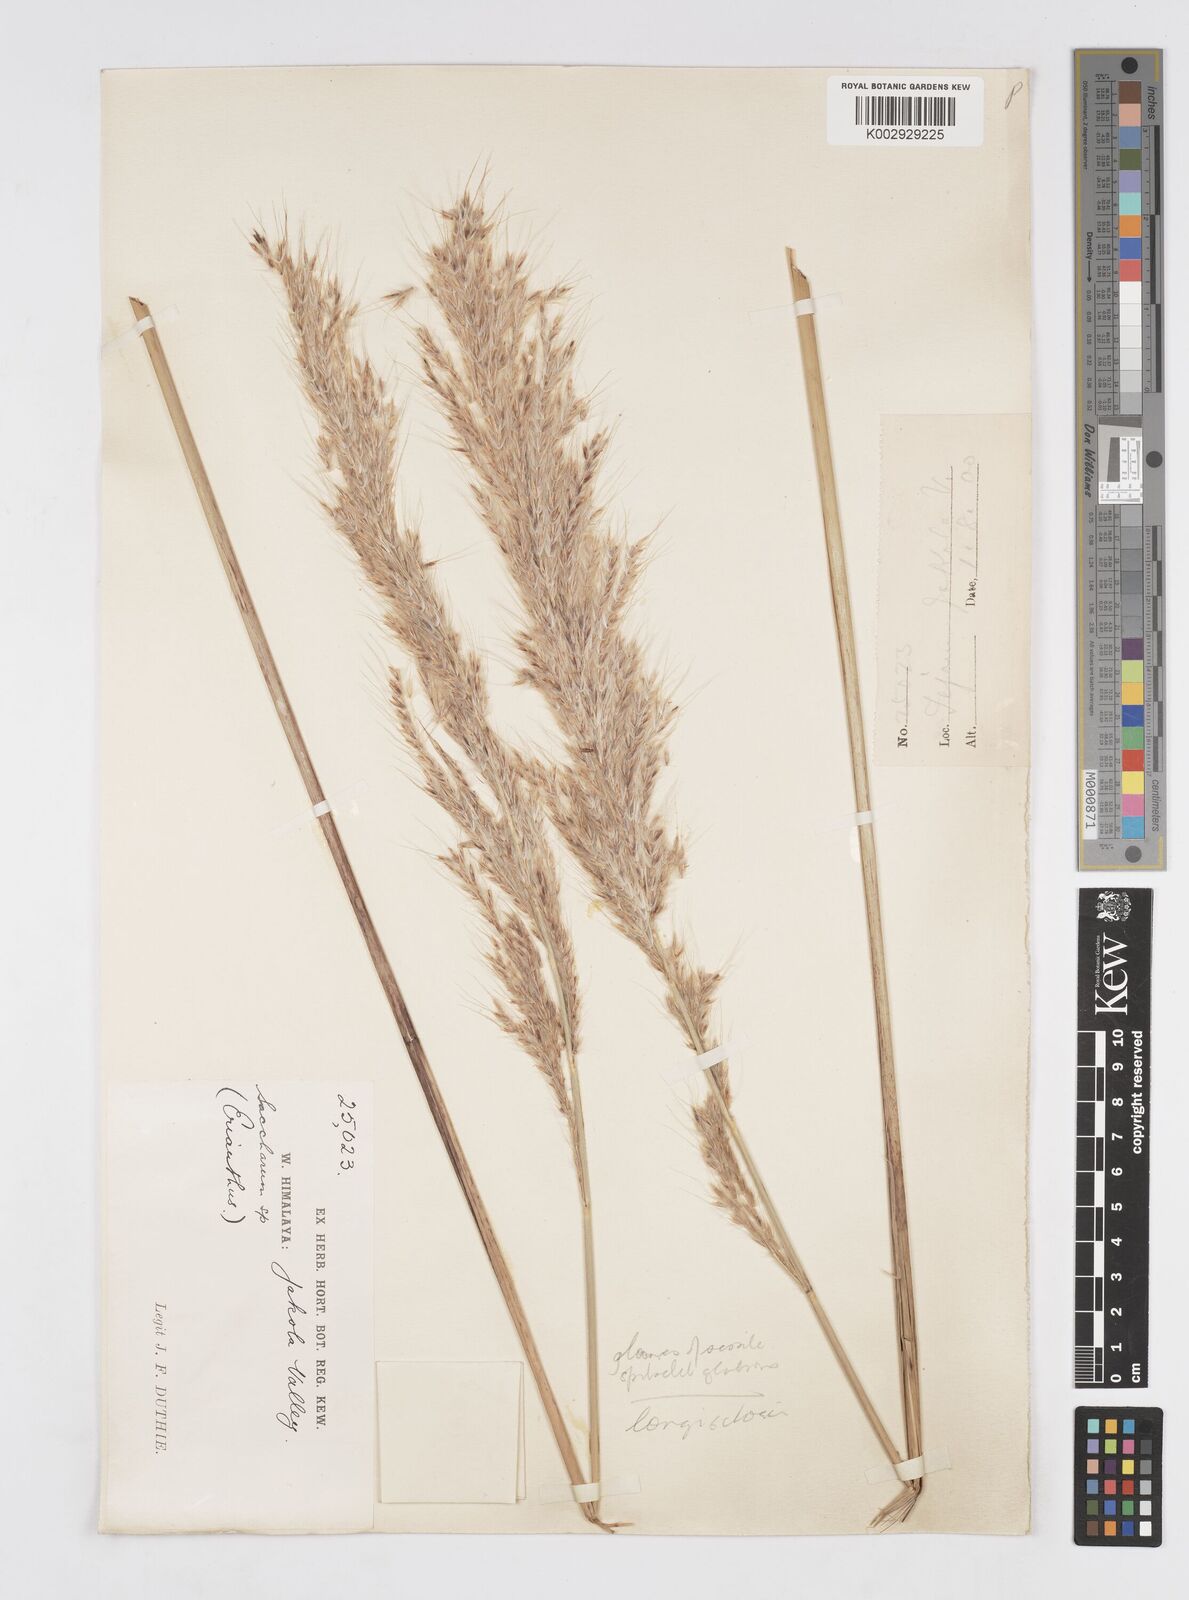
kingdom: Plantae
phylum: Tracheophyta
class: Liliopsida
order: Poales
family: Poaceae
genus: Melinis
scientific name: Melinis longiseta
